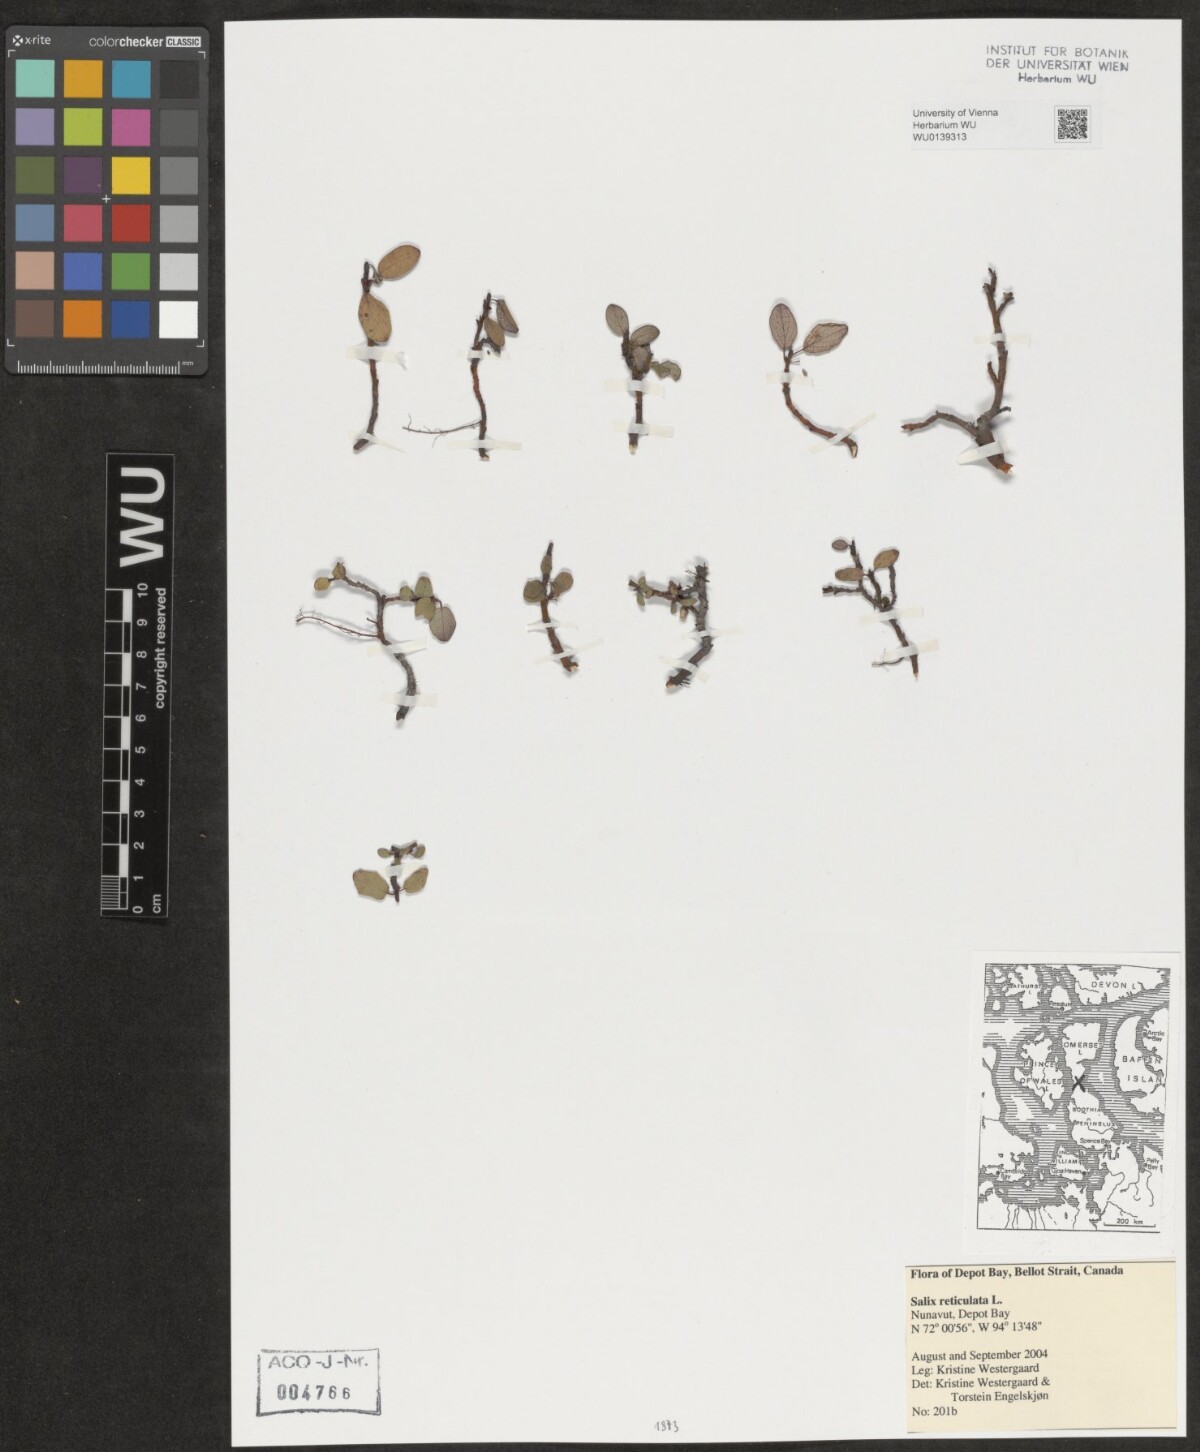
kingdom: Plantae
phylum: Tracheophyta
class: Magnoliopsida
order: Malpighiales
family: Salicaceae
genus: Salix
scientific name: Salix reticulata
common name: Net-leaved willow
